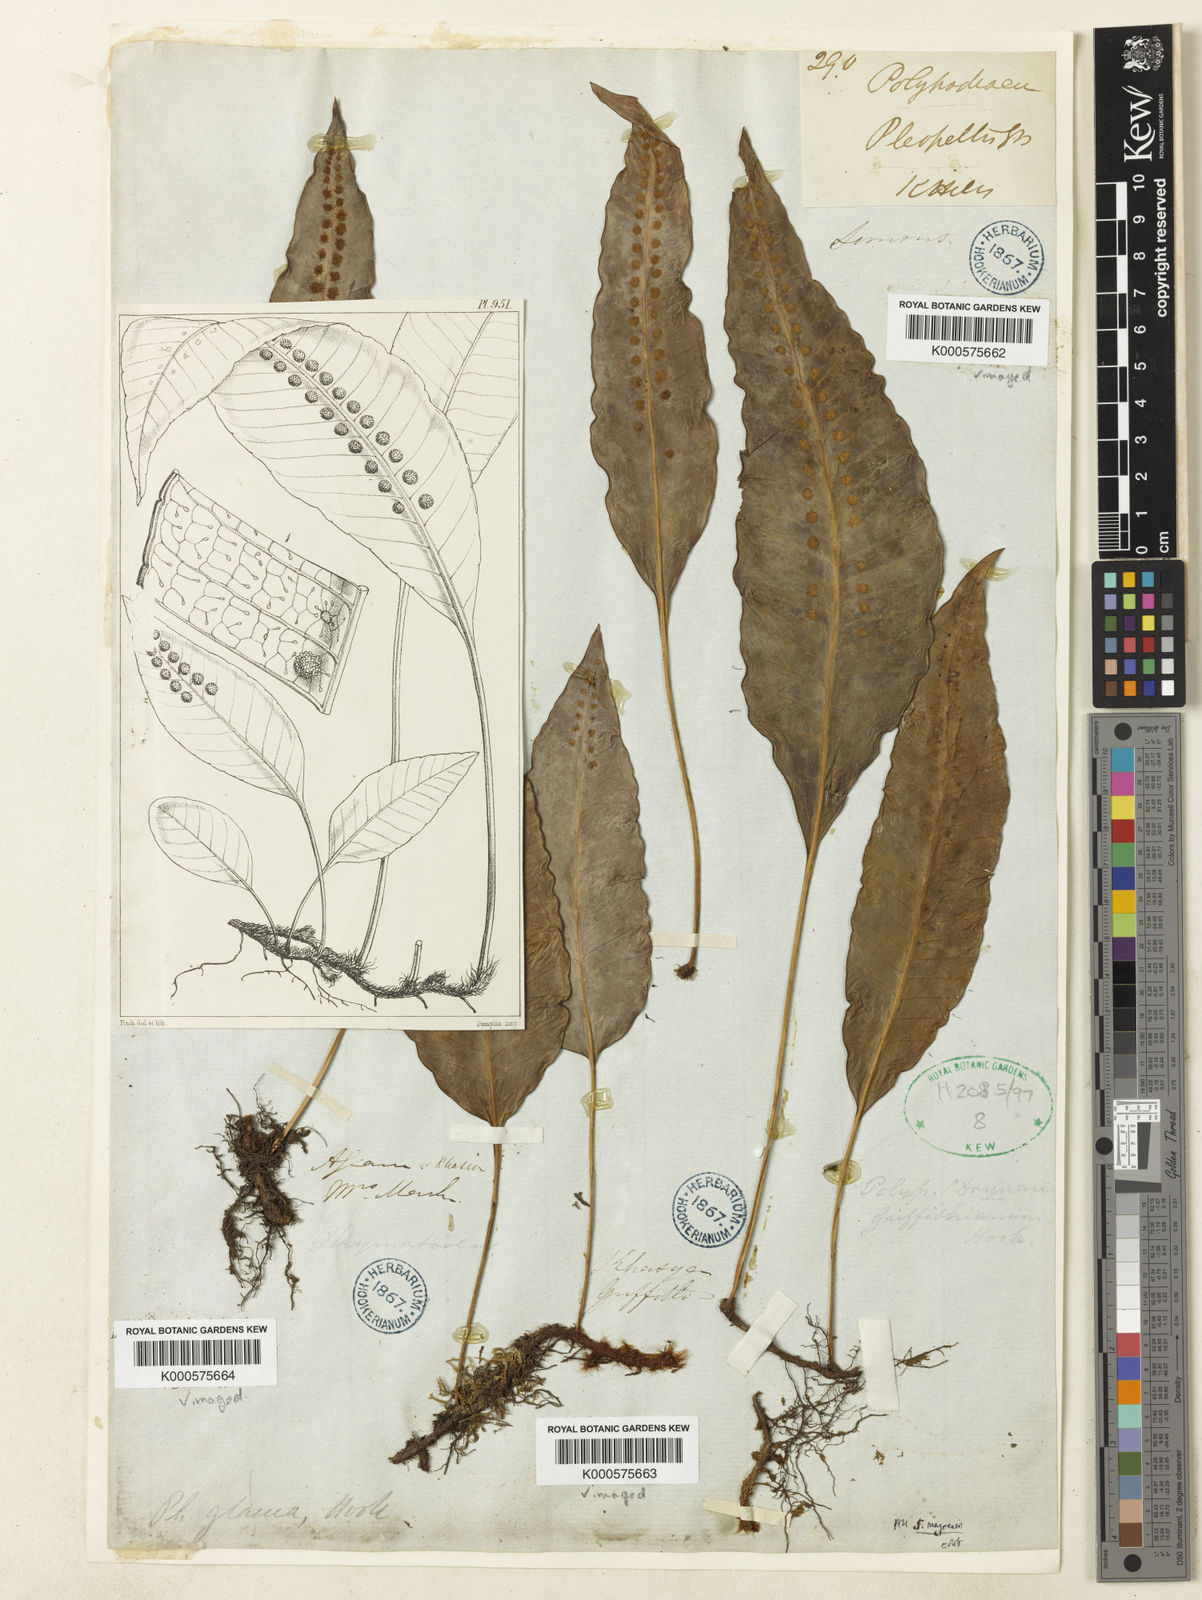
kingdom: Plantae
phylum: Tracheophyta
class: Polypodiopsida
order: Polypodiales
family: Polypodiaceae
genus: Selliguea
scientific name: Selliguea griffithiana
